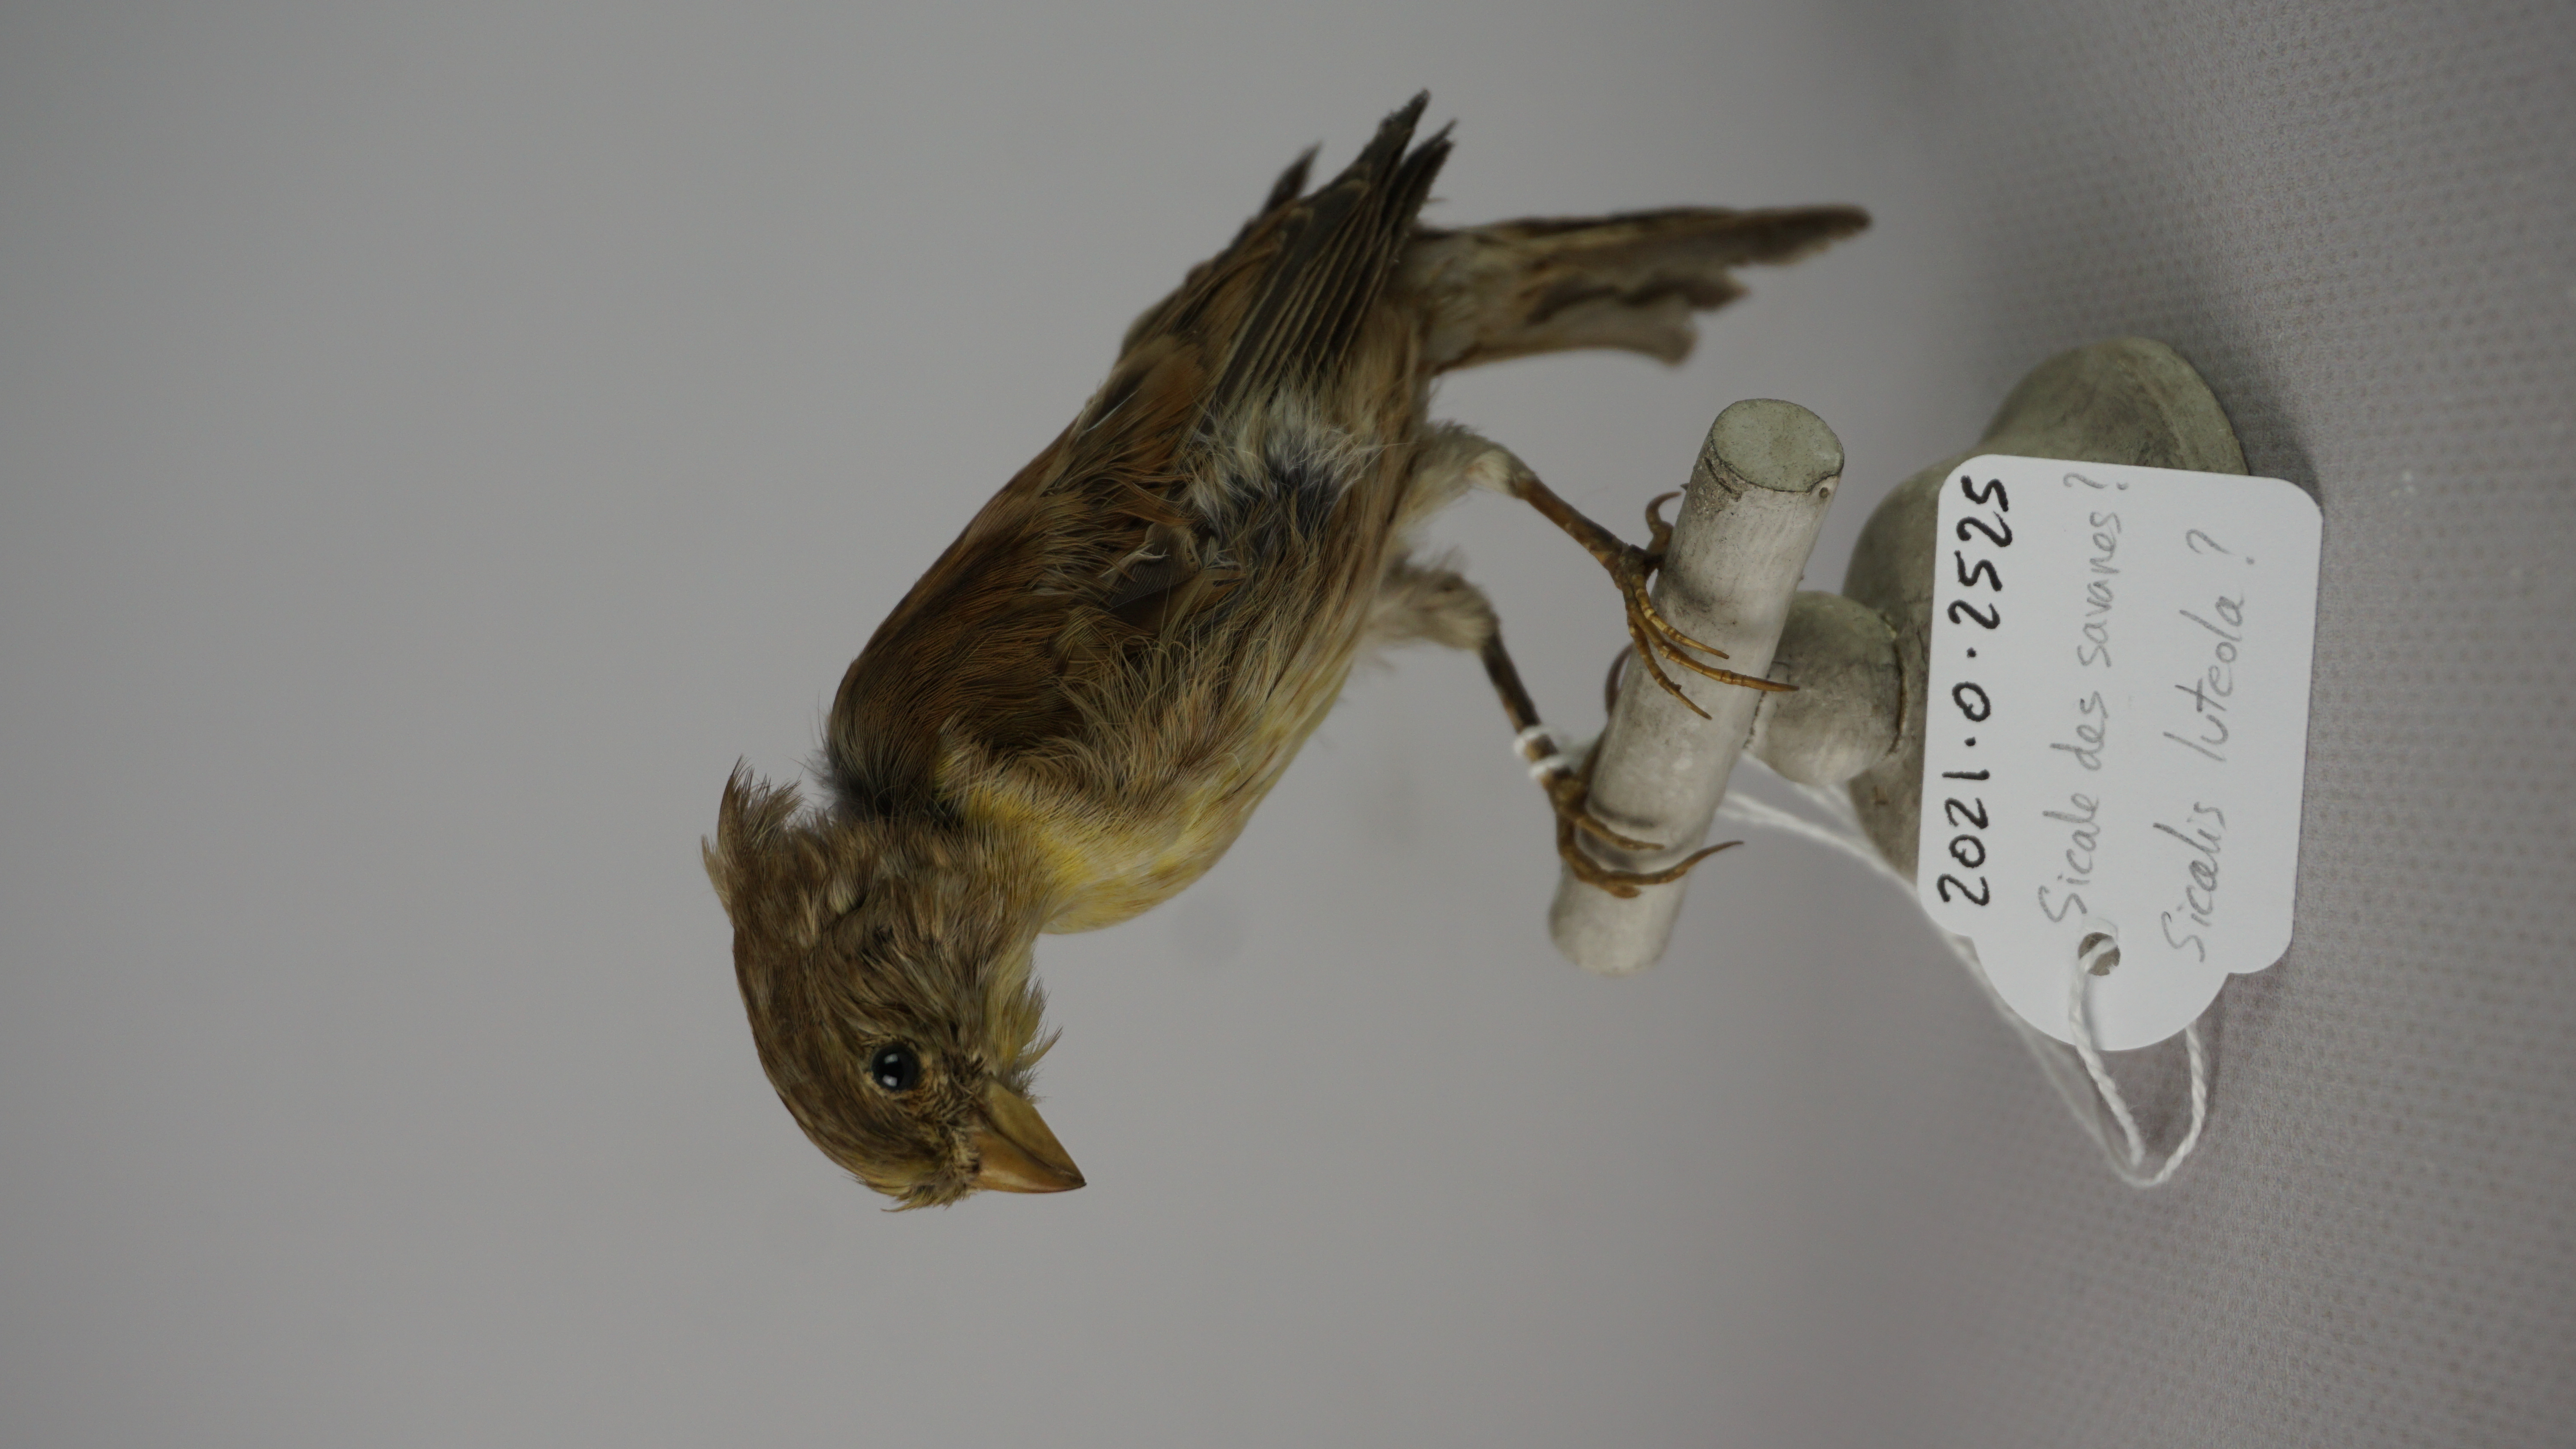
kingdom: Animalia
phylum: Chordata
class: Aves
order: Passeriformes
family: Thraupidae
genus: Sicalis
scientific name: Sicalis luteola
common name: Grassland yellow-finch
